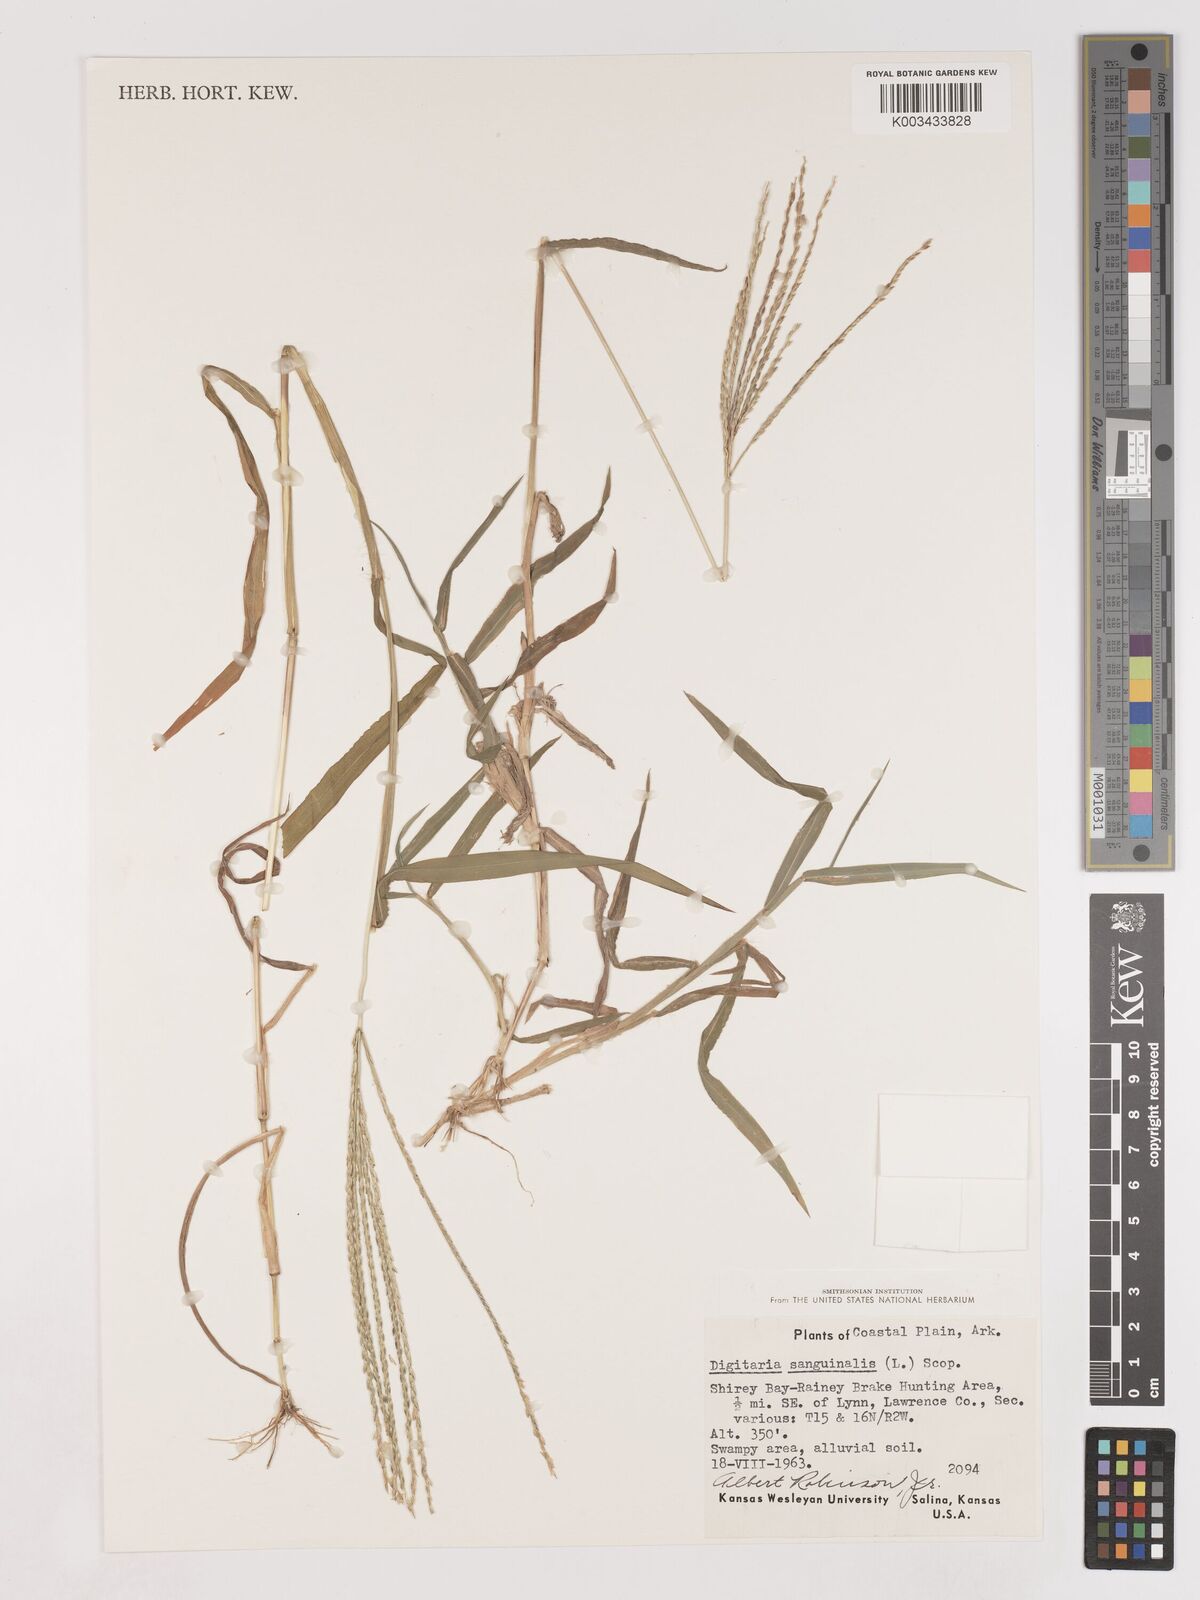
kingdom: Plantae
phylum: Tracheophyta
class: Liliopsida
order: Poales
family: Poaceae
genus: Digitaria
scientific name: Digitaria ciliaris
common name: Tropical finger-grass
